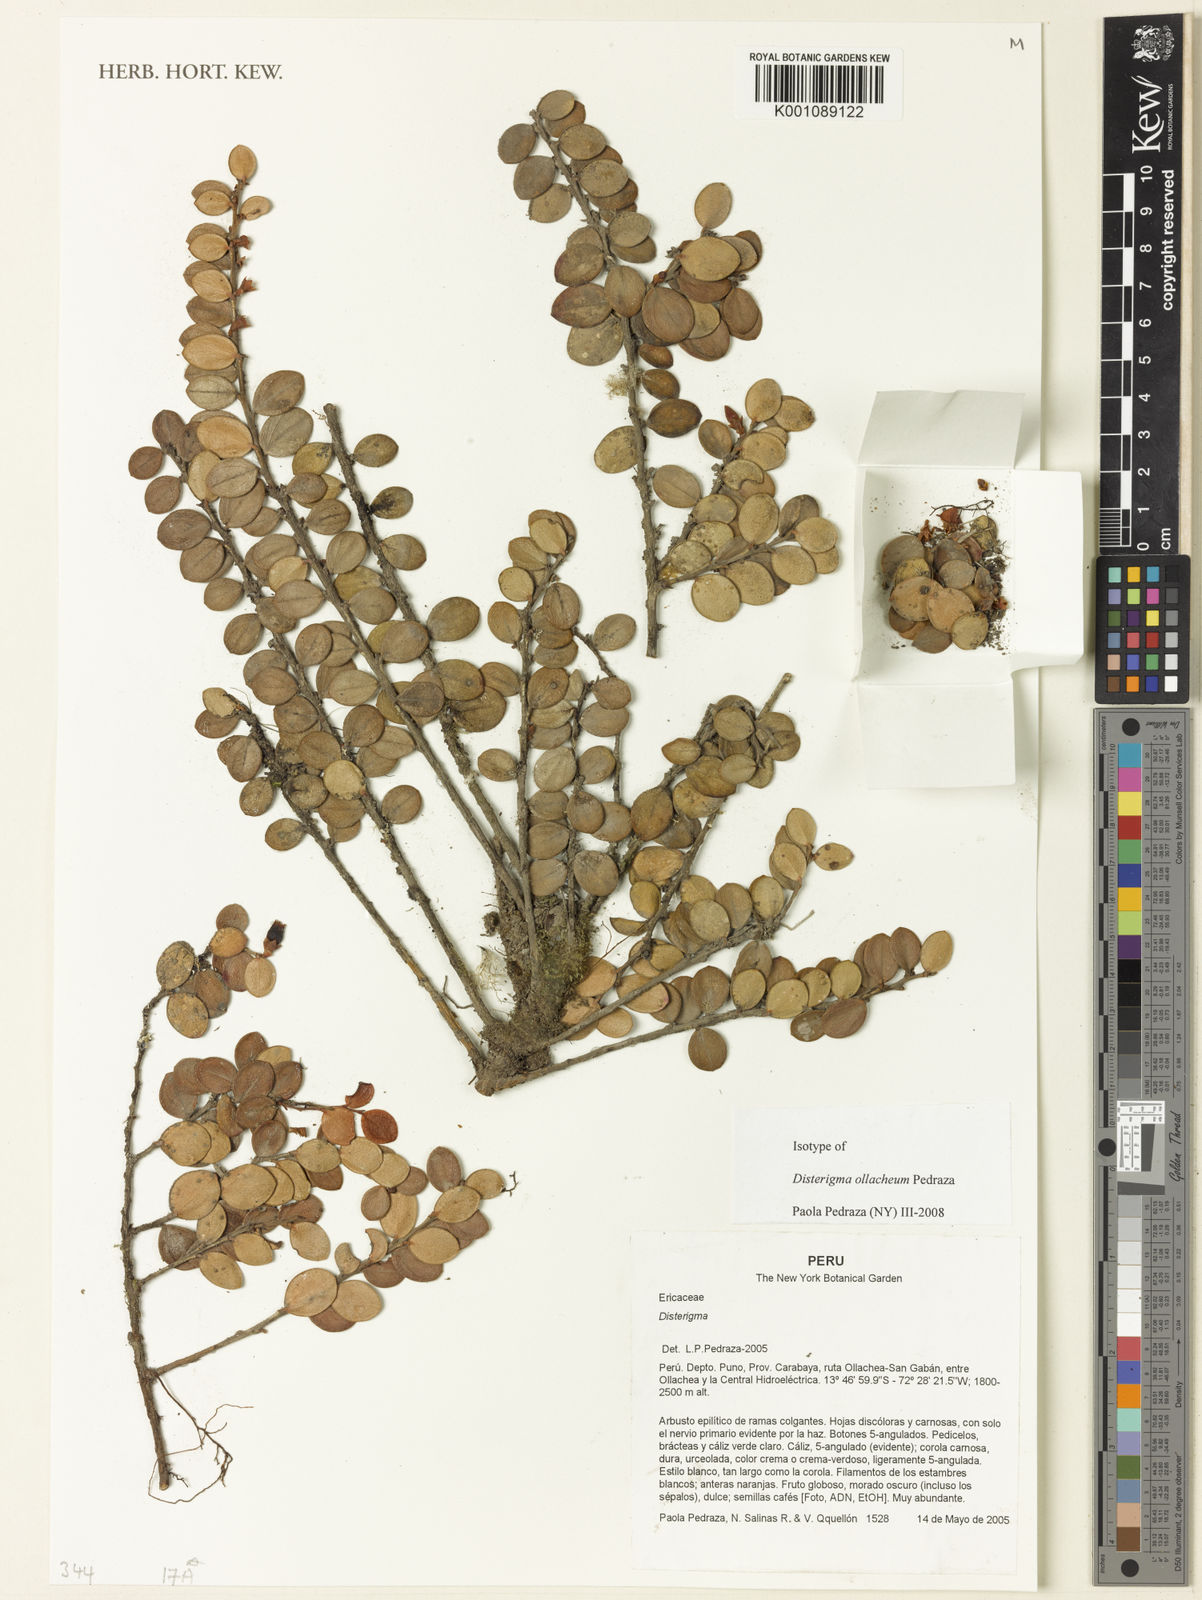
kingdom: Plantae
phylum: Tracheophyta
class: Magnoliopsida
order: Ericales
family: Ericaceae
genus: Disterigma
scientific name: Disterigma ollacheum
